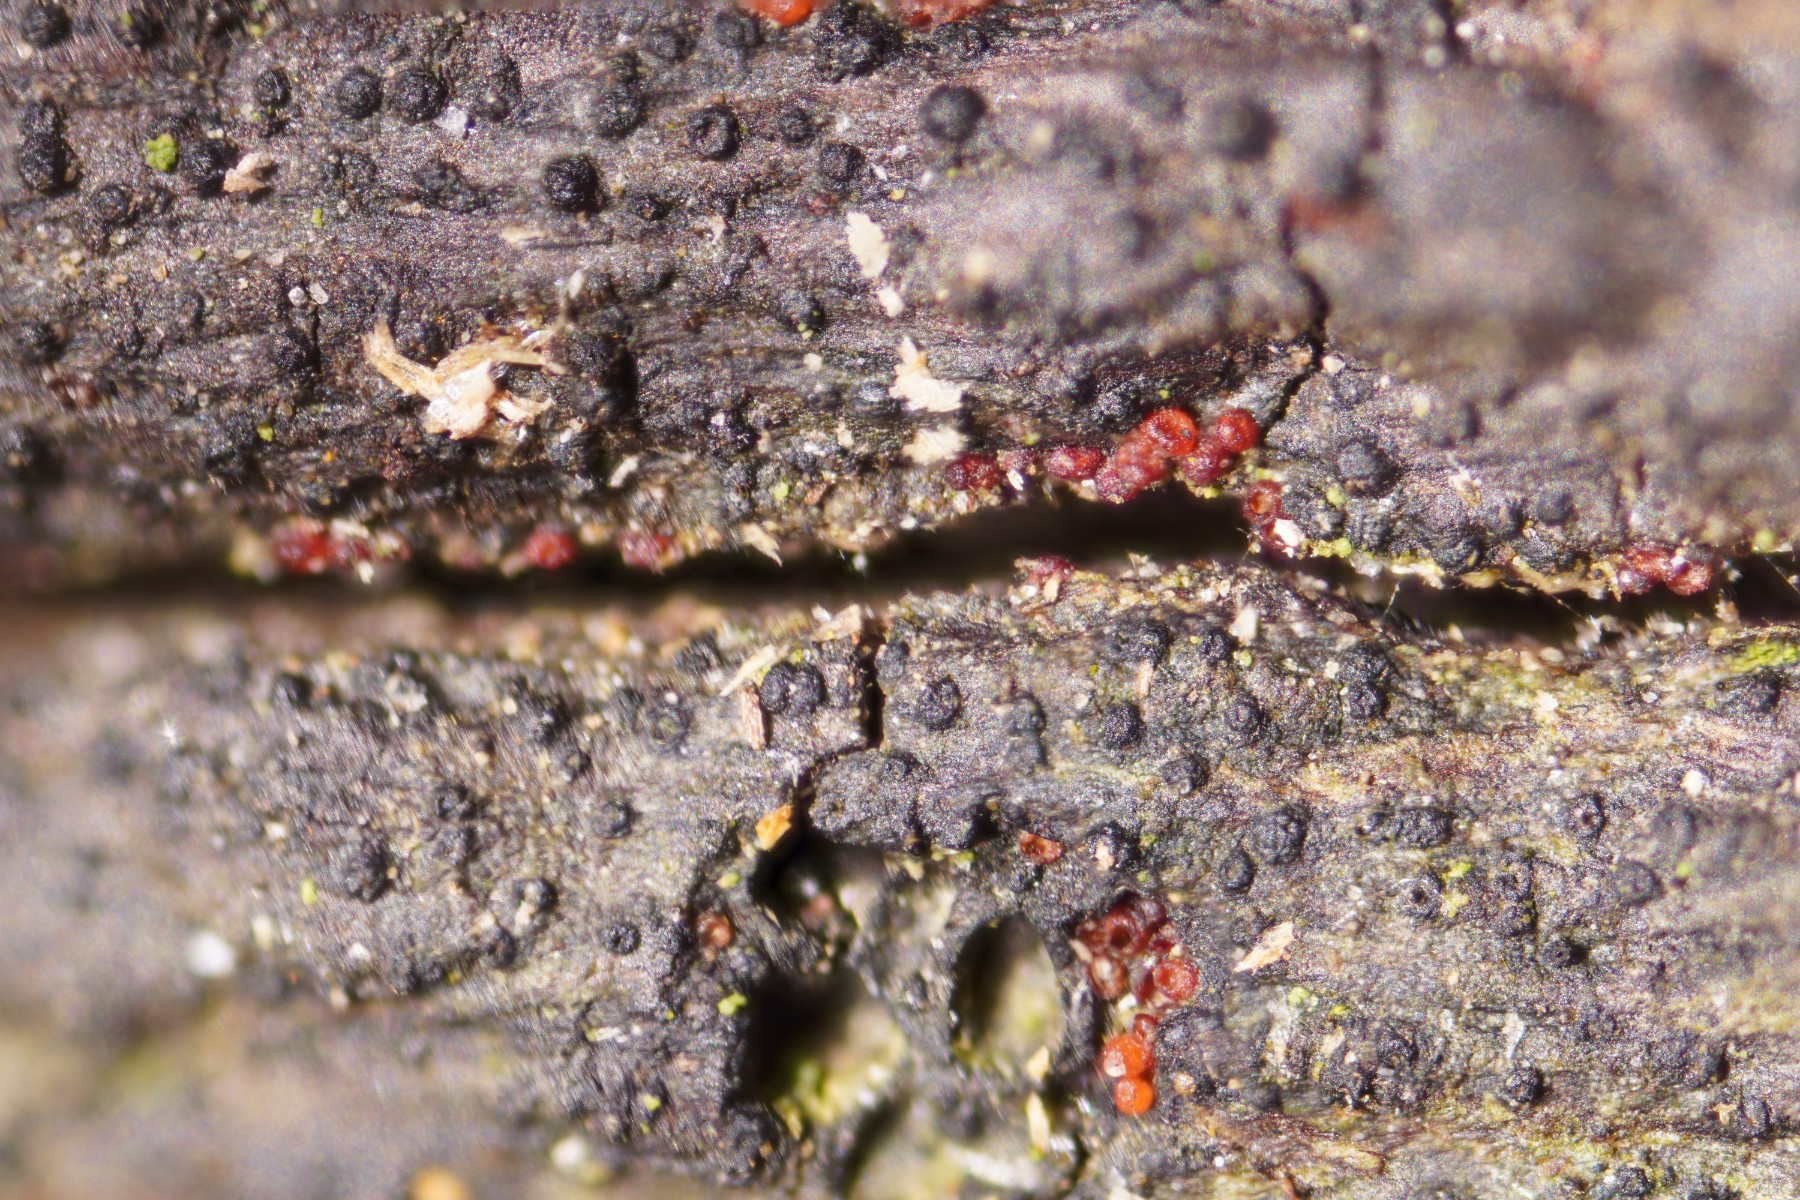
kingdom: Fungi
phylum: Ascomycota
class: Sordariomycetes
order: Hypocreales
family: Nectriaceae
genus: Dialonectria
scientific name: Dialonectria episphaeria
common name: kulskorpe-cinnobersvamp
